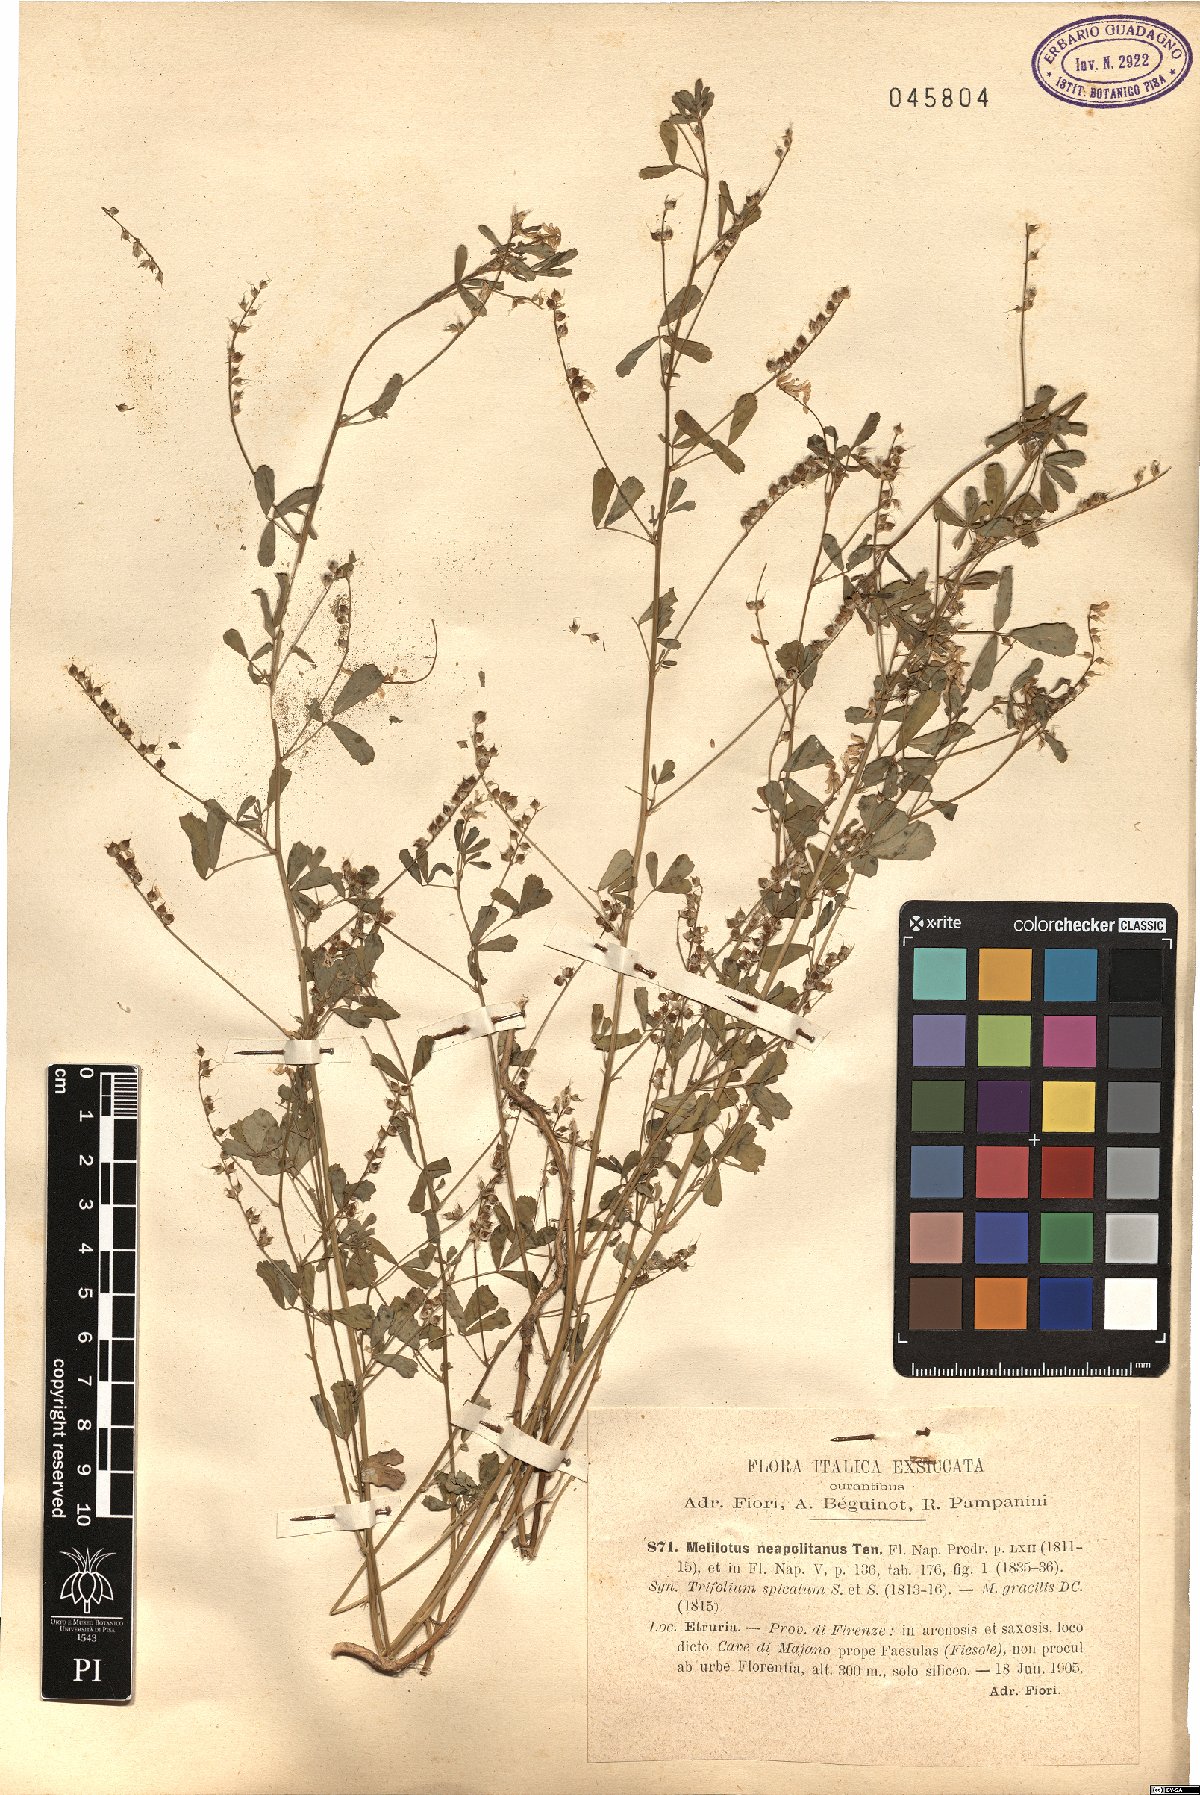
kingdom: Plantae
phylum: Tracheophyta
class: Magnoliopsida
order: Fabales
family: Fabaceae
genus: Melilotus
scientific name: Melilotus neapolitanus
